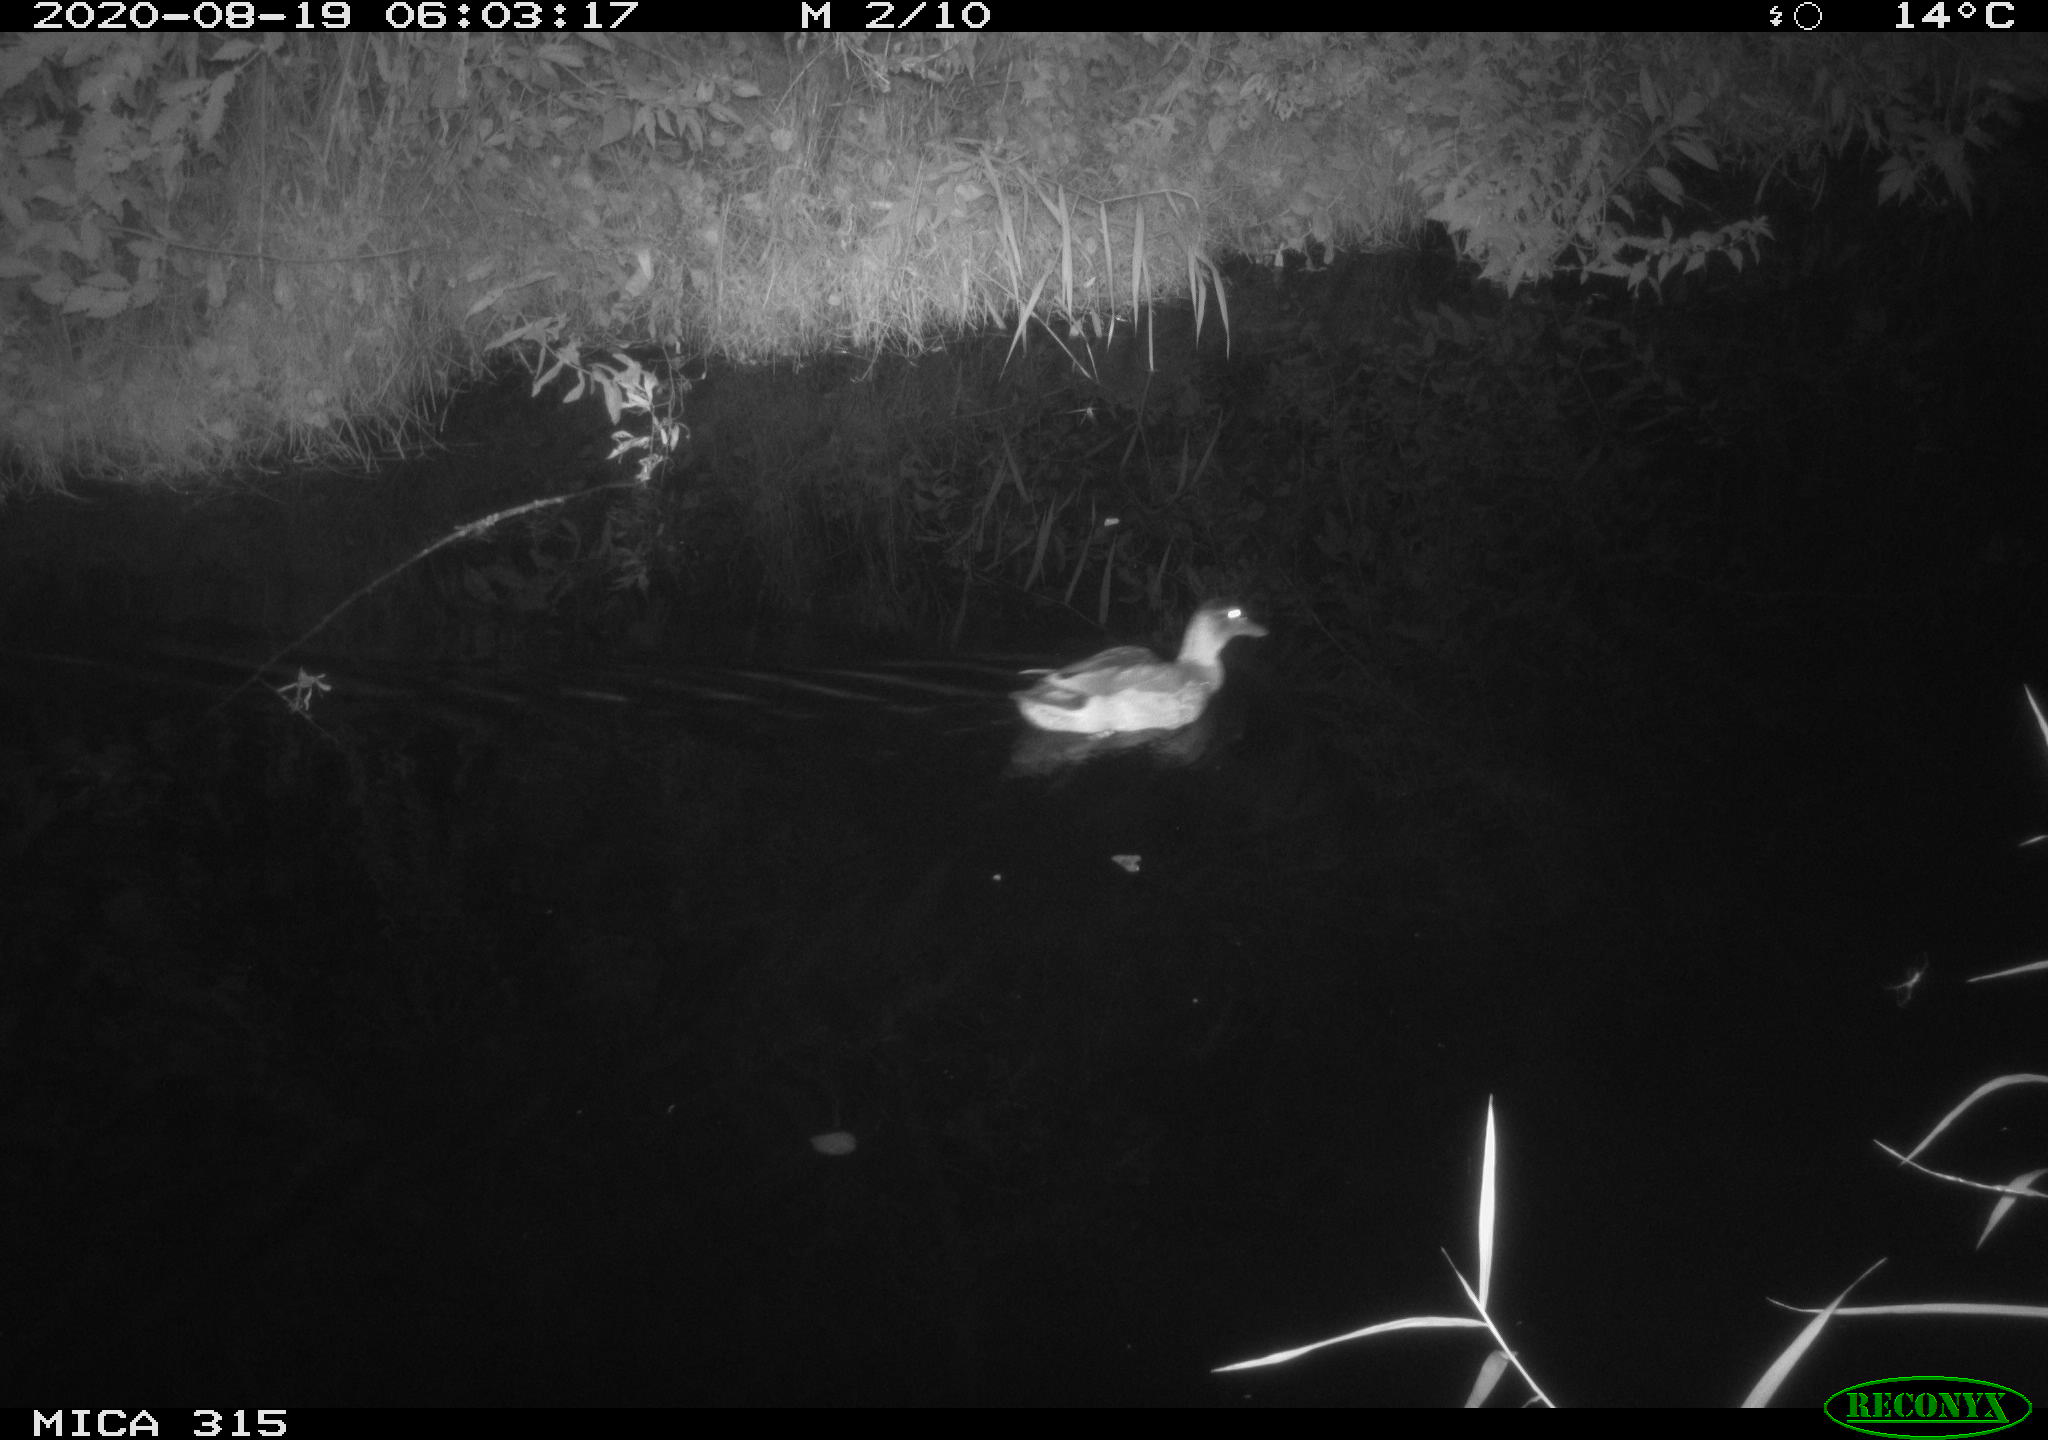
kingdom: Animalia
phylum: Chordata
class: Aves
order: Anseriformes
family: Anatidae
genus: Anas
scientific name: Anas platyrhynchos
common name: Mallard
